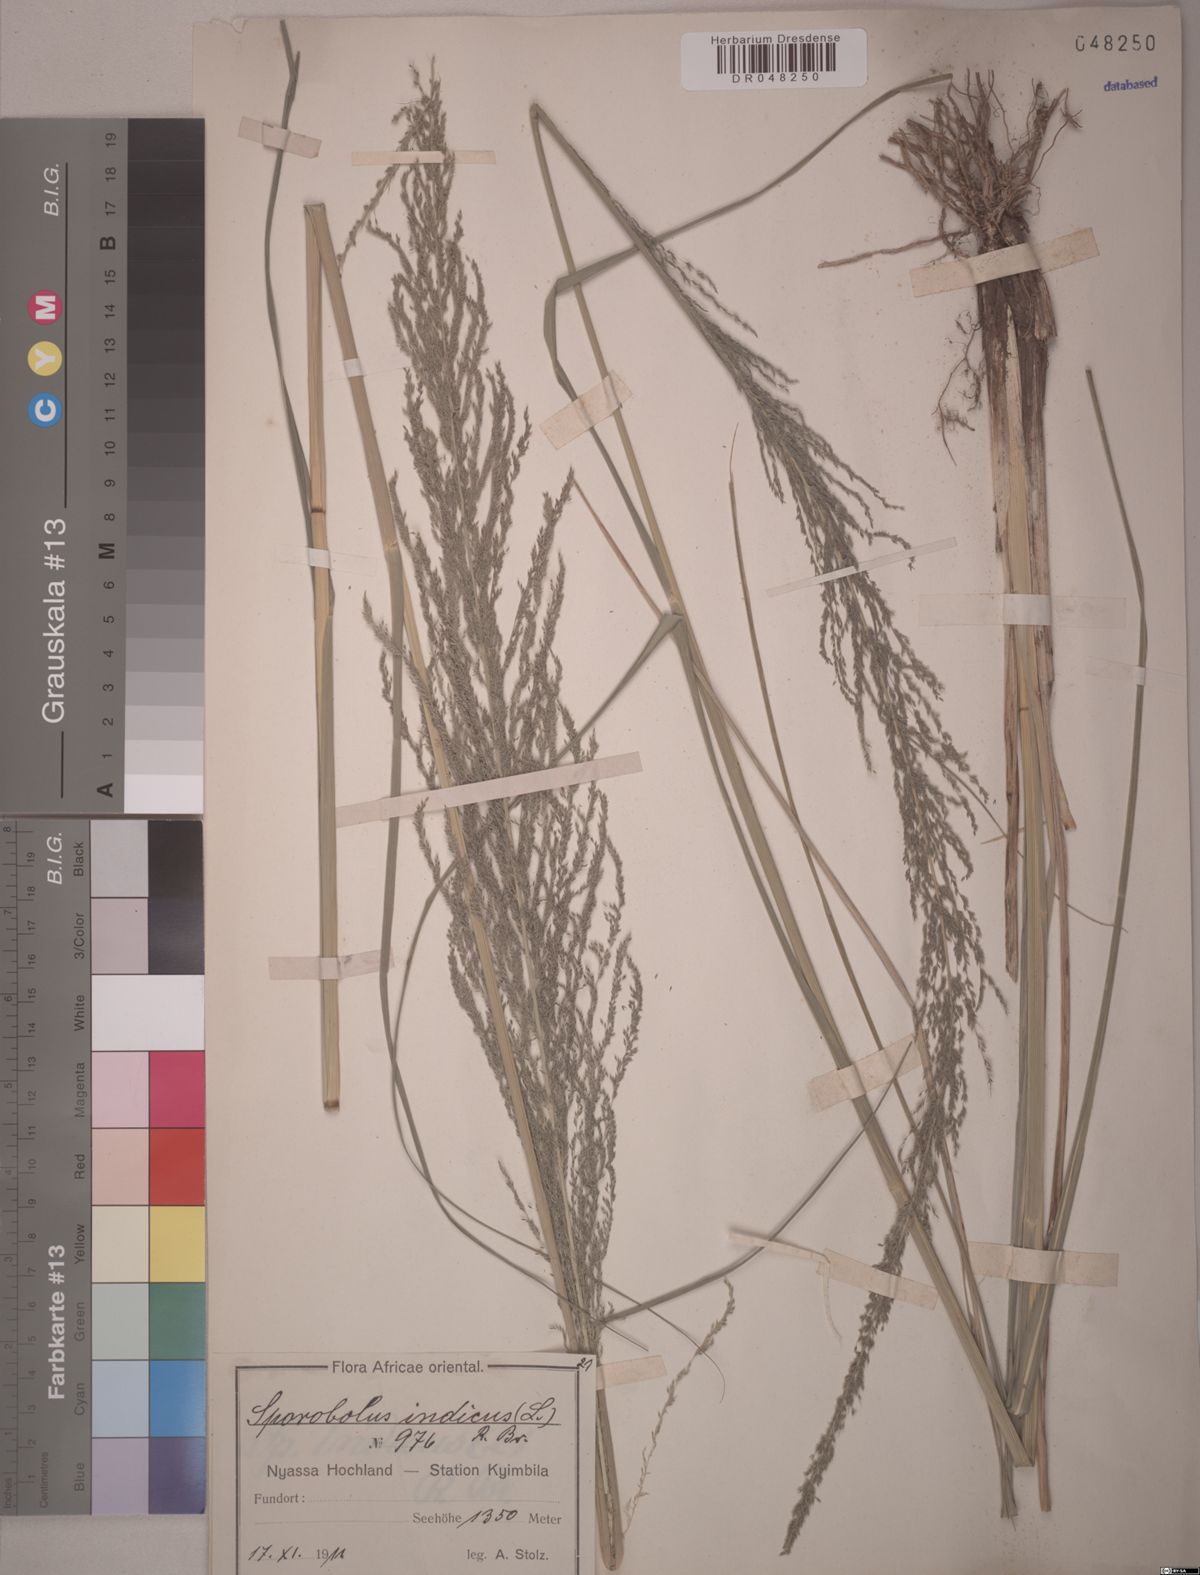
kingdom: Plantae
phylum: Tracheophyta
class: Liliopsida
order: Poales
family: Poaceae
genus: Sporobolus
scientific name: Sporobolus indicus
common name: Smut grass
